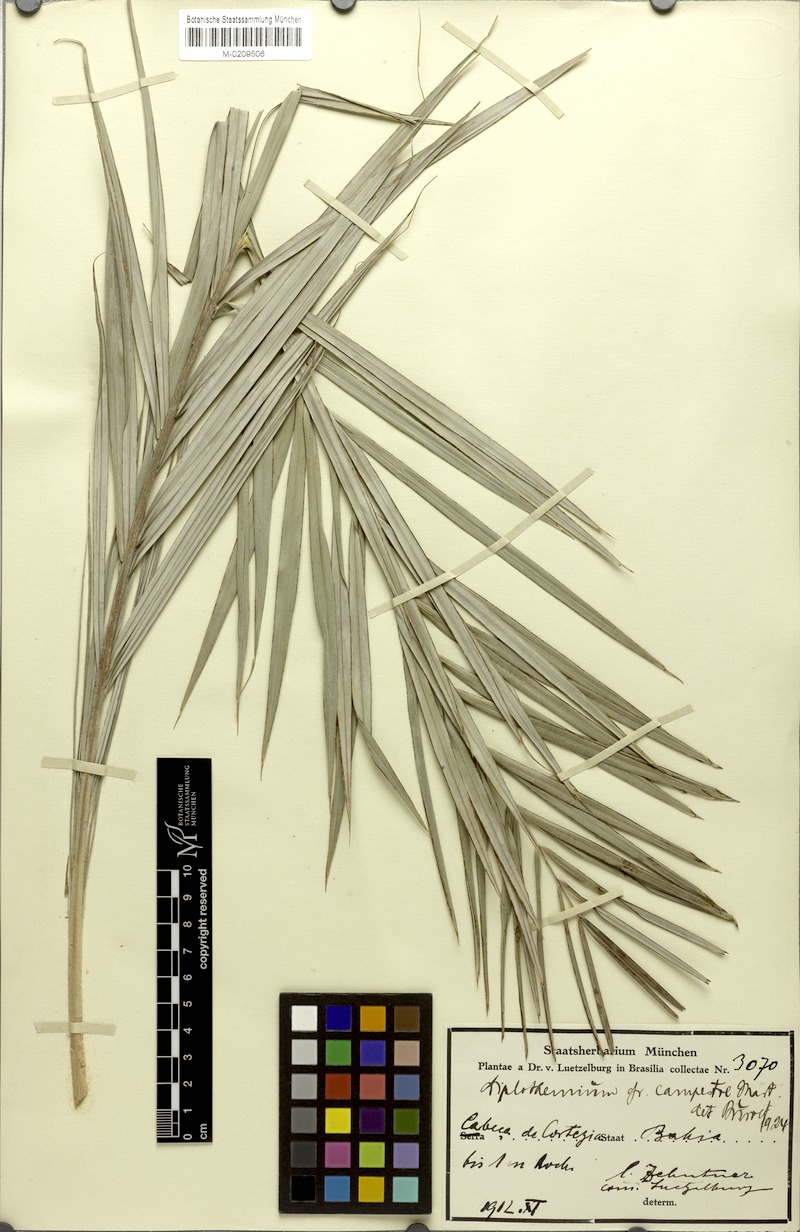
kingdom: Plantae
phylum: Tracheophyta
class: Liliopsida
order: Arecales
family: Arecaceae
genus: Allagoptera
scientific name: Allagoptera campestris
